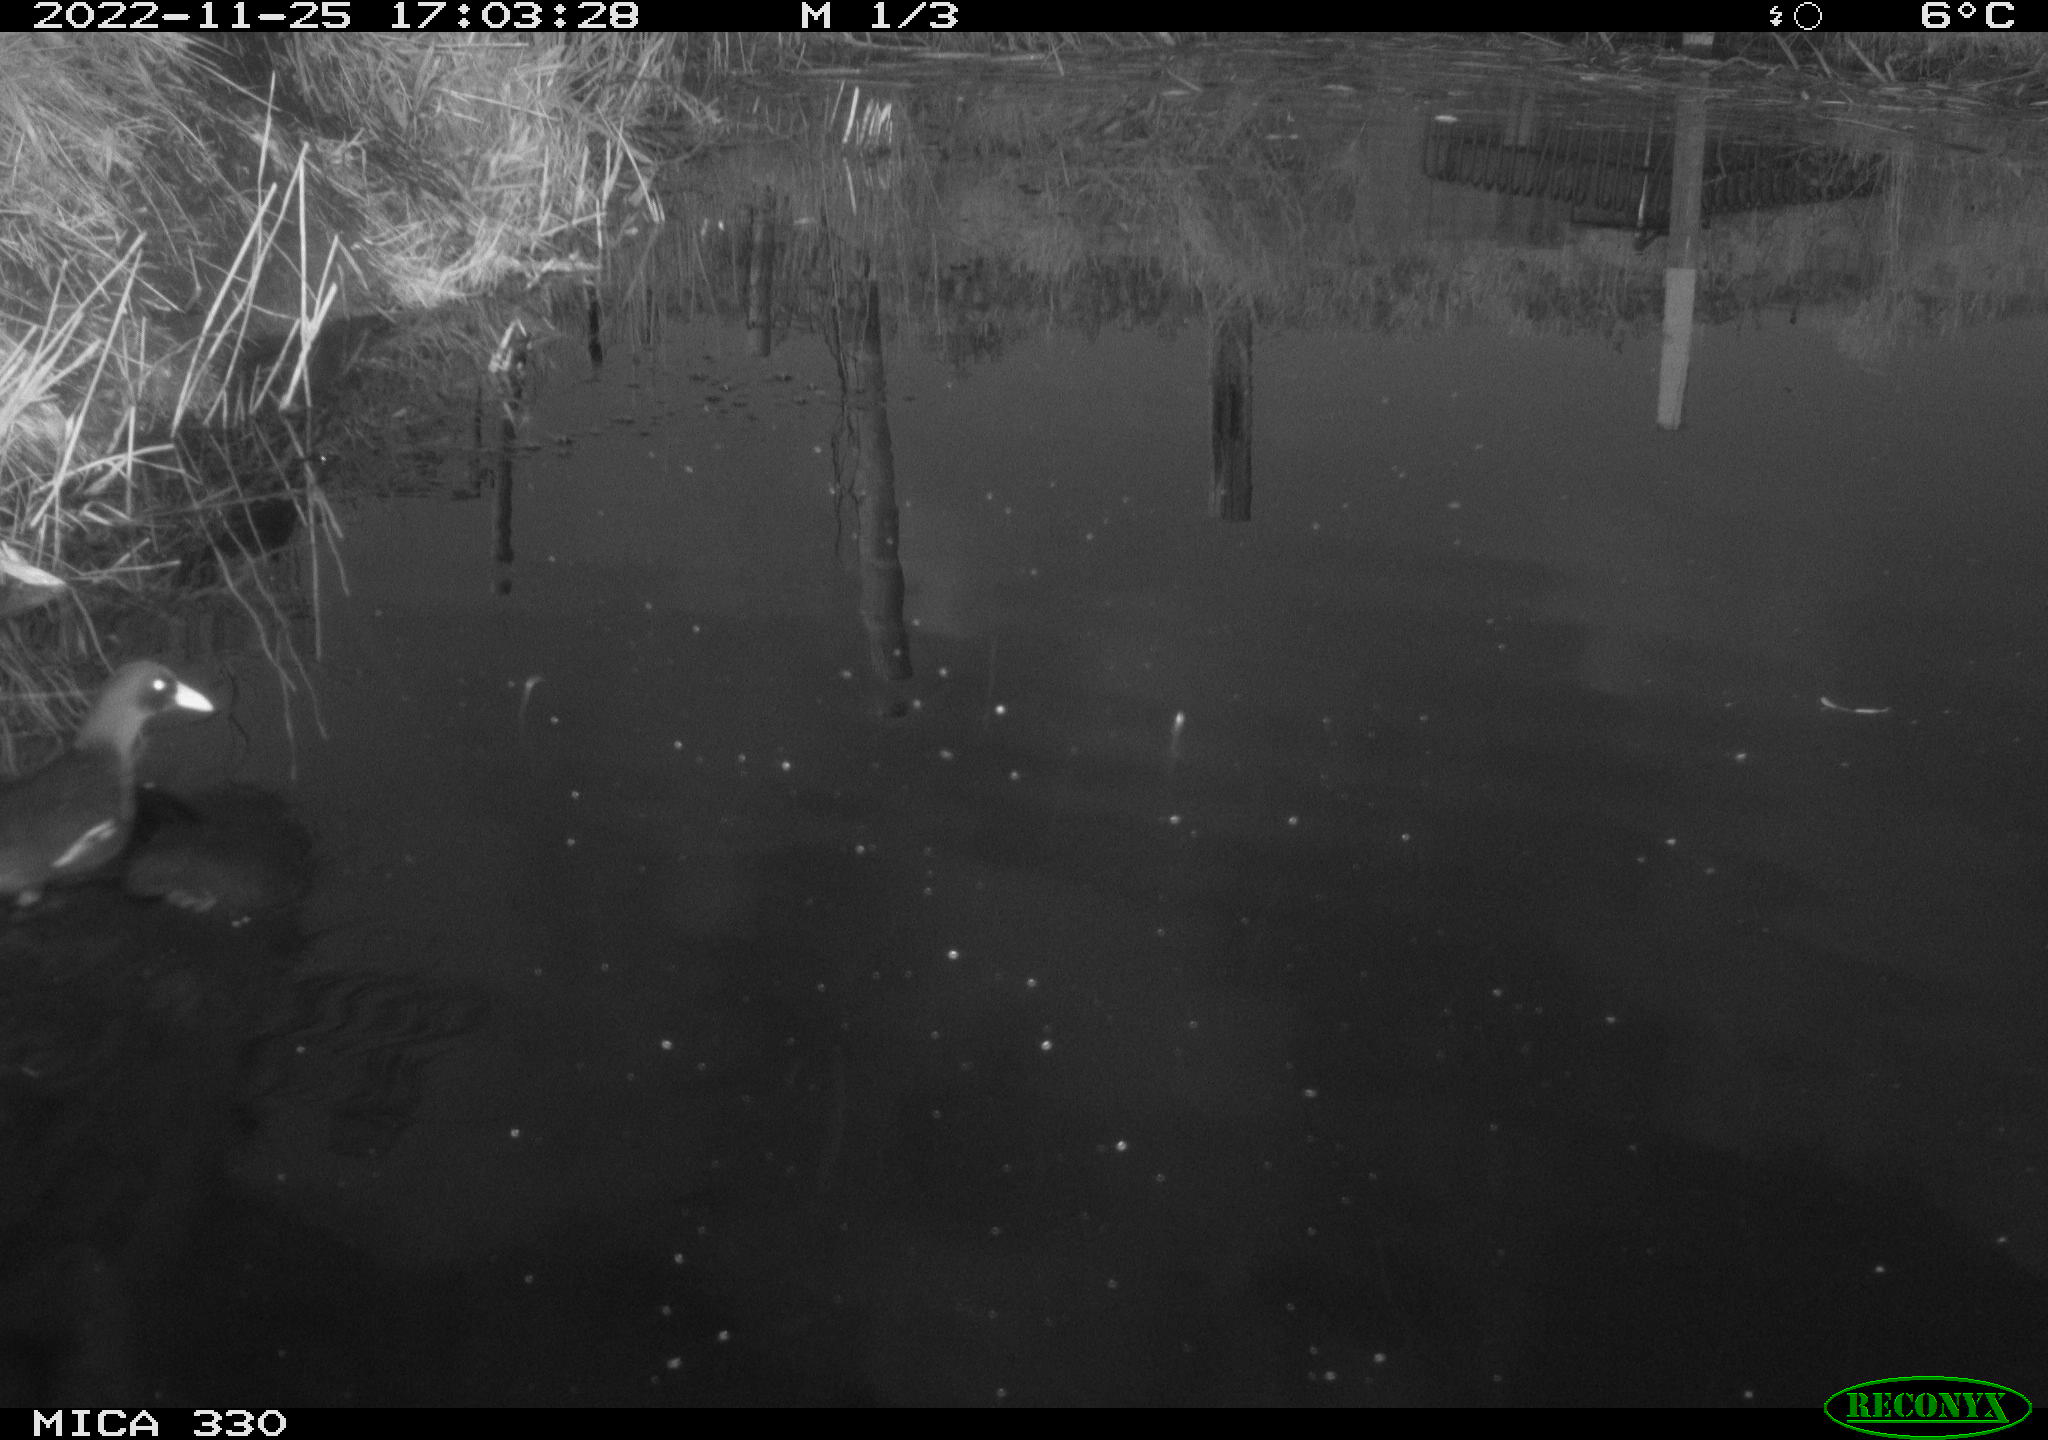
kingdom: Animalia
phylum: Chordata
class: Aves
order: Gruiformes
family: Rallidae
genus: Gallinula
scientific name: Gallinula chloropus
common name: Common moorhen
